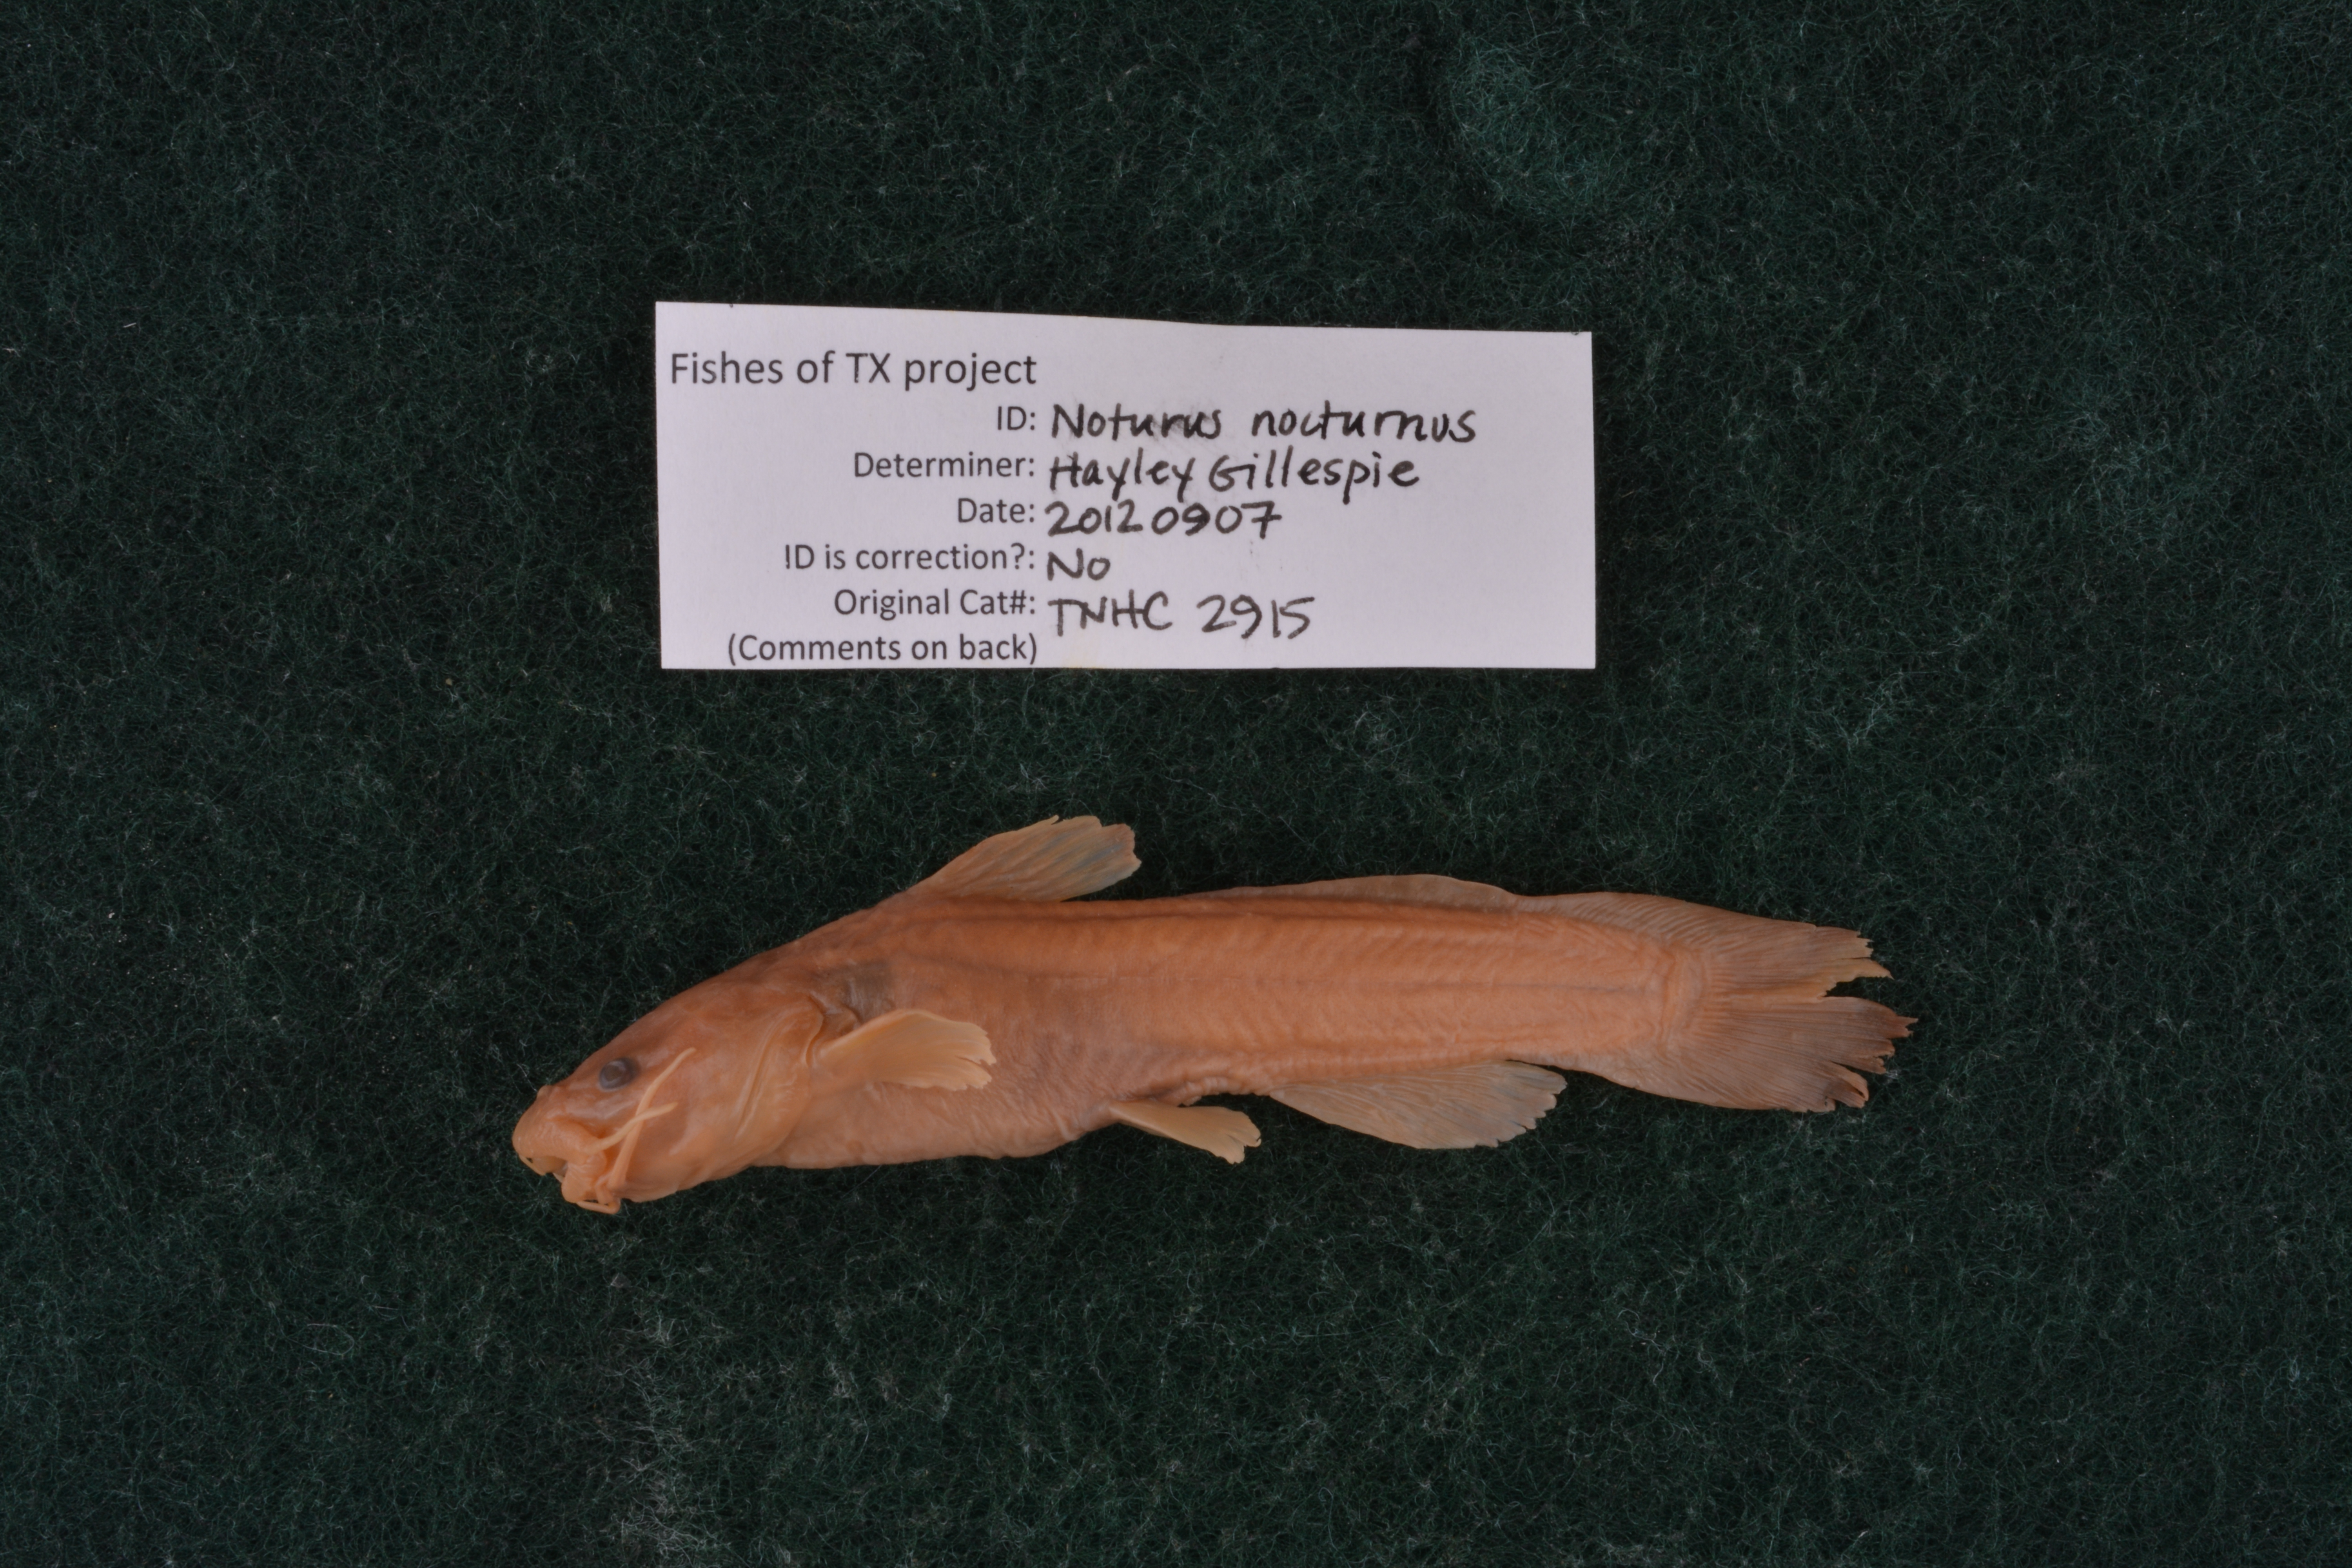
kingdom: Animalia
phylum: Chordata
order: Siluriformes
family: Ictaluridae
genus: Noturus
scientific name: Noturus nocturnus
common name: Freckled madtom
